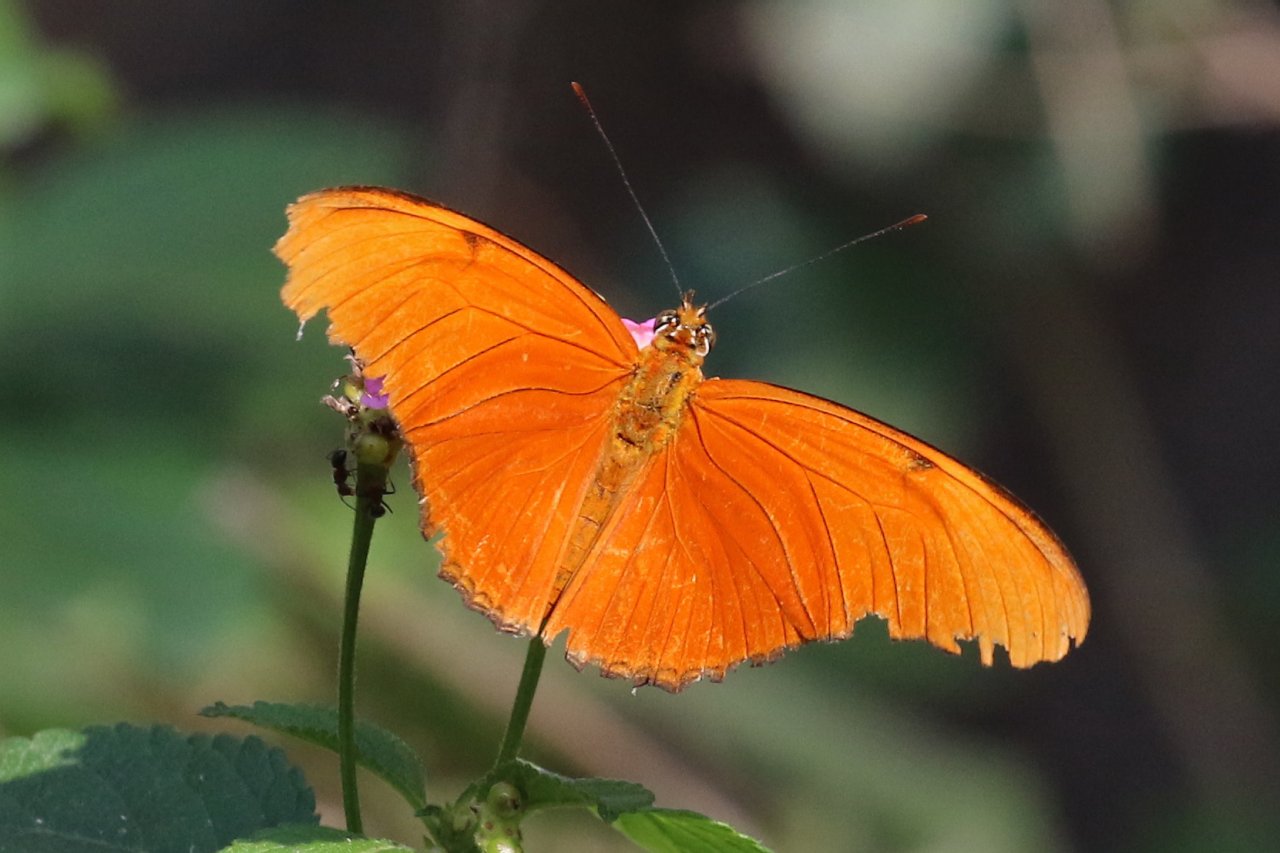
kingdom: Animalia
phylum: Arthropoda
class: Insecta
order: Lepidoptera
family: Nymphalidae
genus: Dryas
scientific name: Dryas iulia
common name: Julia
